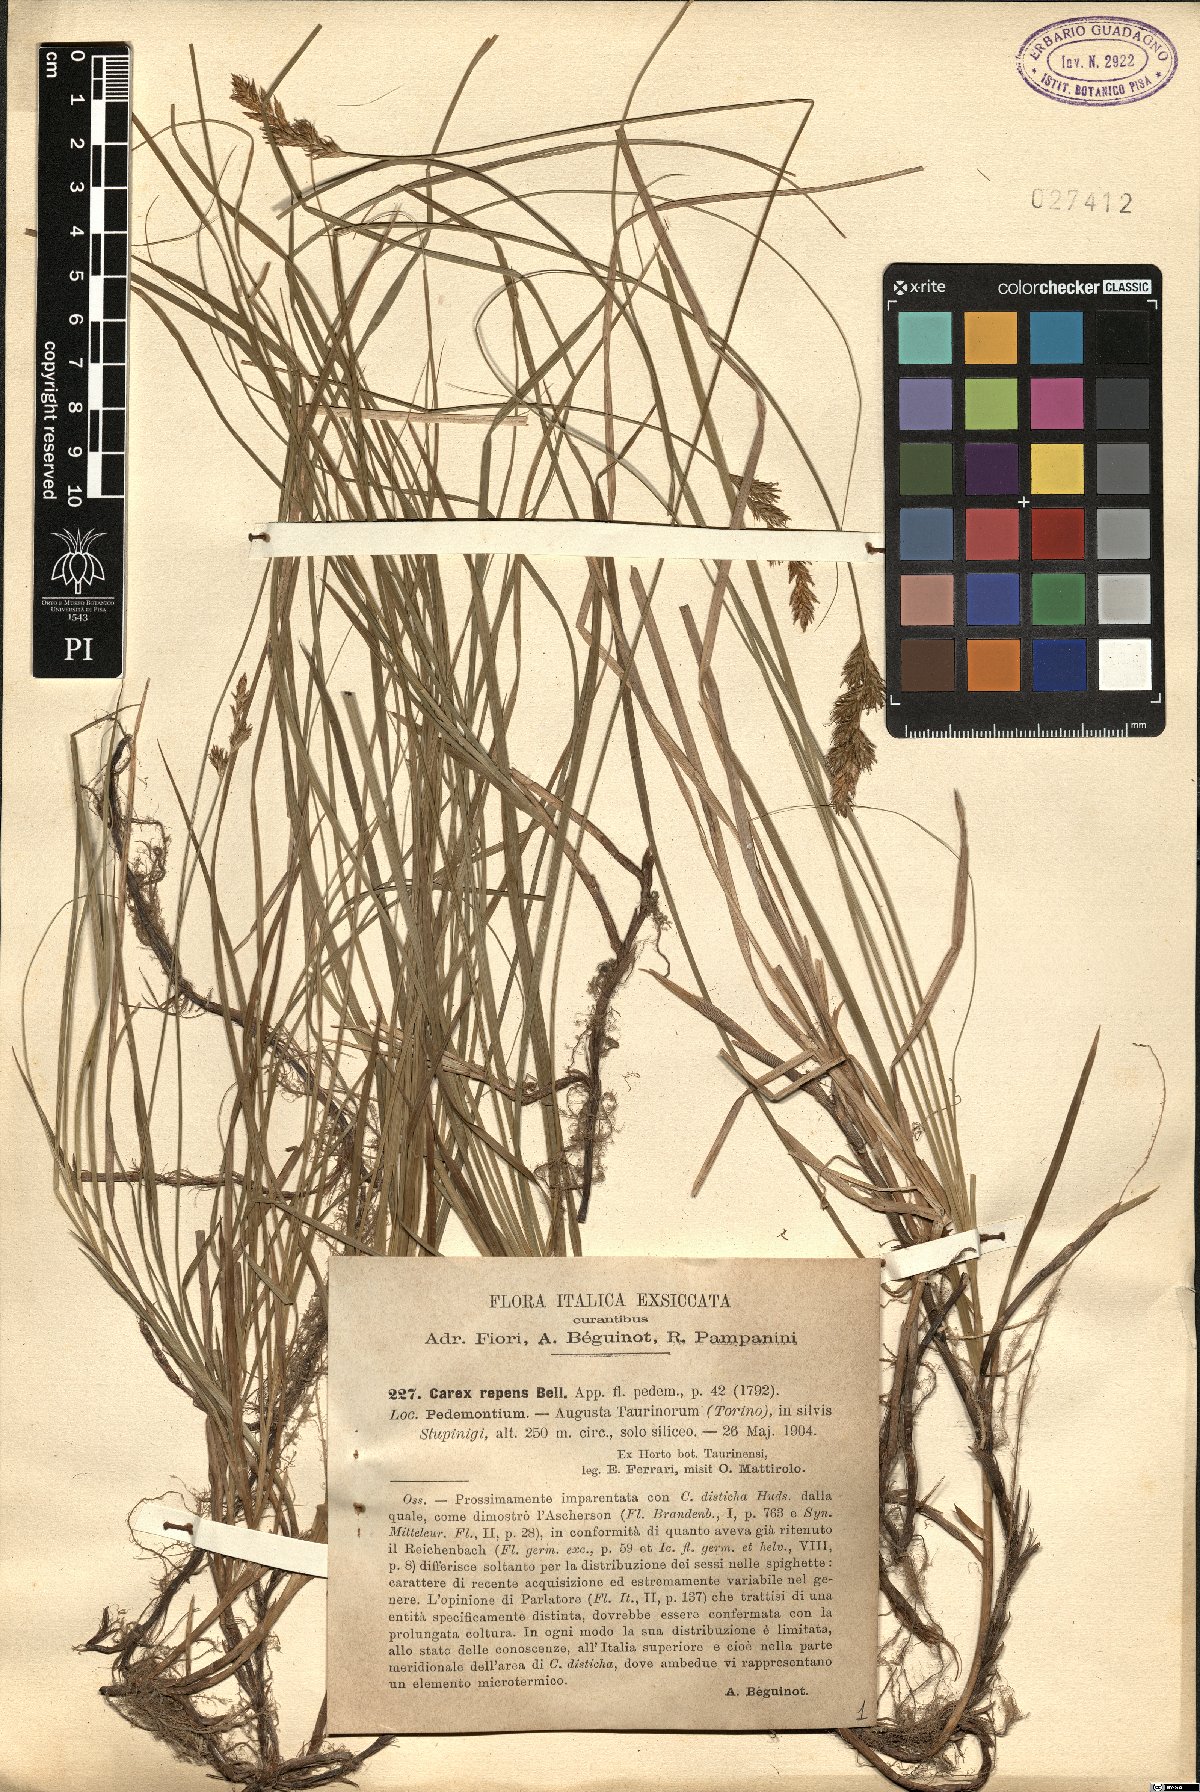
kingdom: Plantae
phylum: Tracheophyta
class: Liliopsida
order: Poales
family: Cyperaceae
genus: Carex
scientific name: Carex repens
